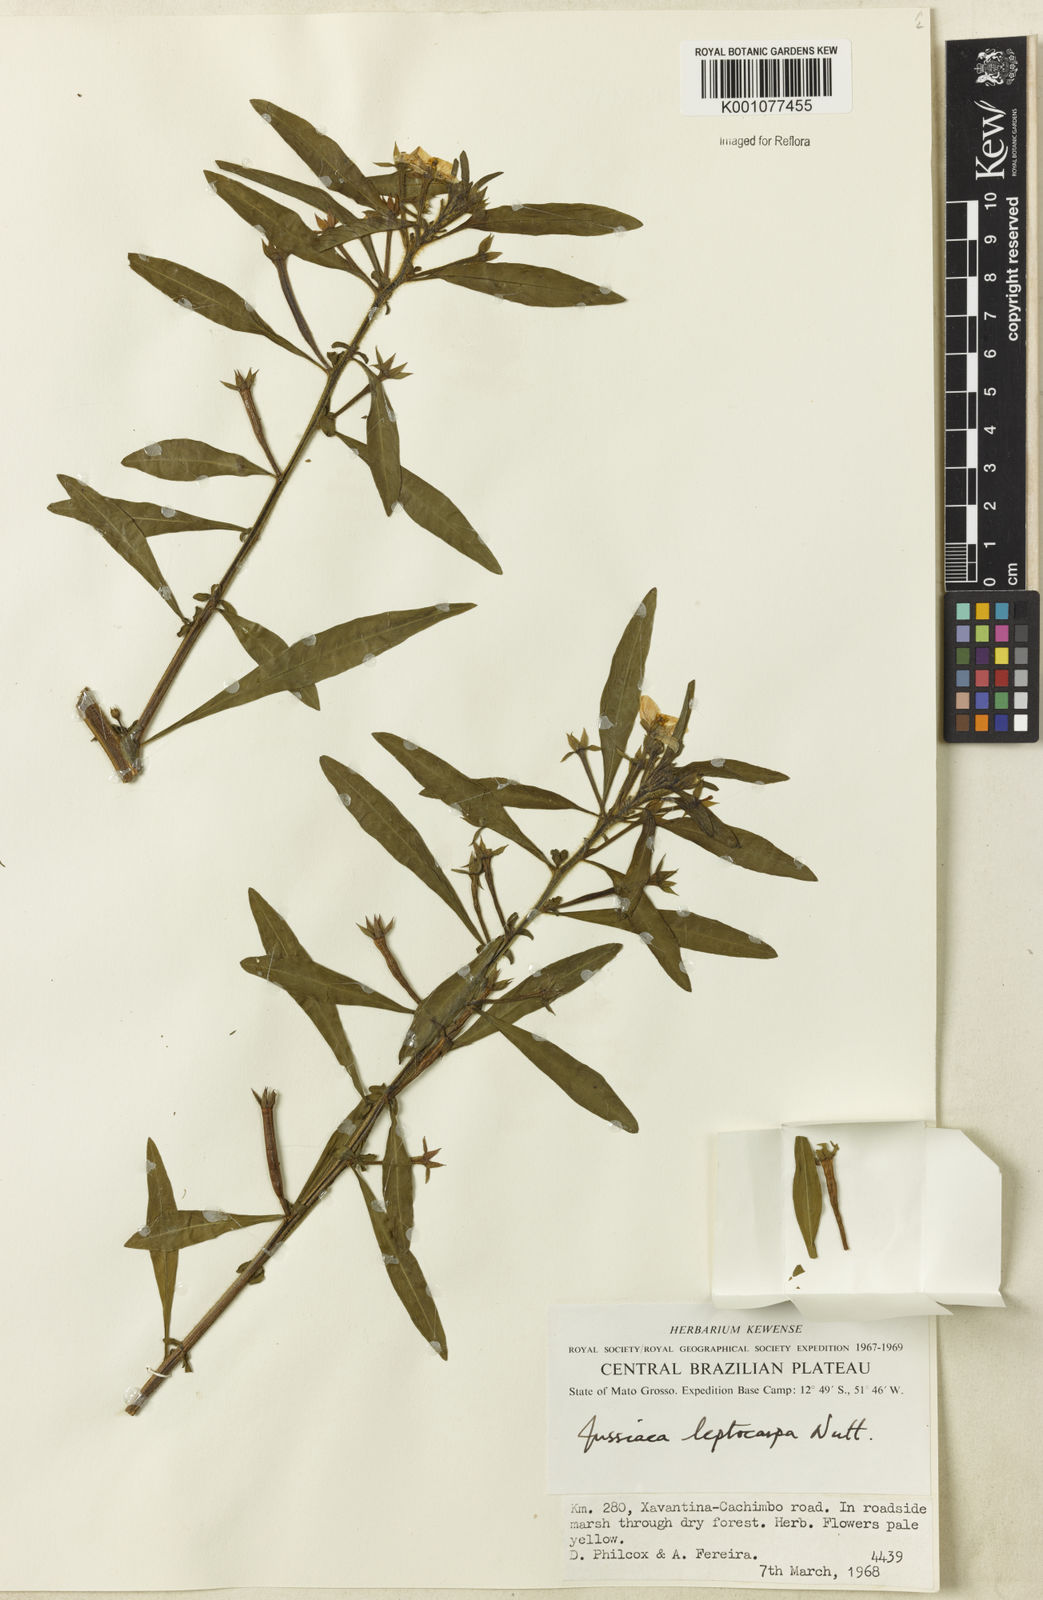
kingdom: Plantae
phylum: Tracheophyta
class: Magnoliopsida
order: Myrtales
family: Onagraceae
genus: Ludwigia
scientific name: Ludwigia leptocarpa
